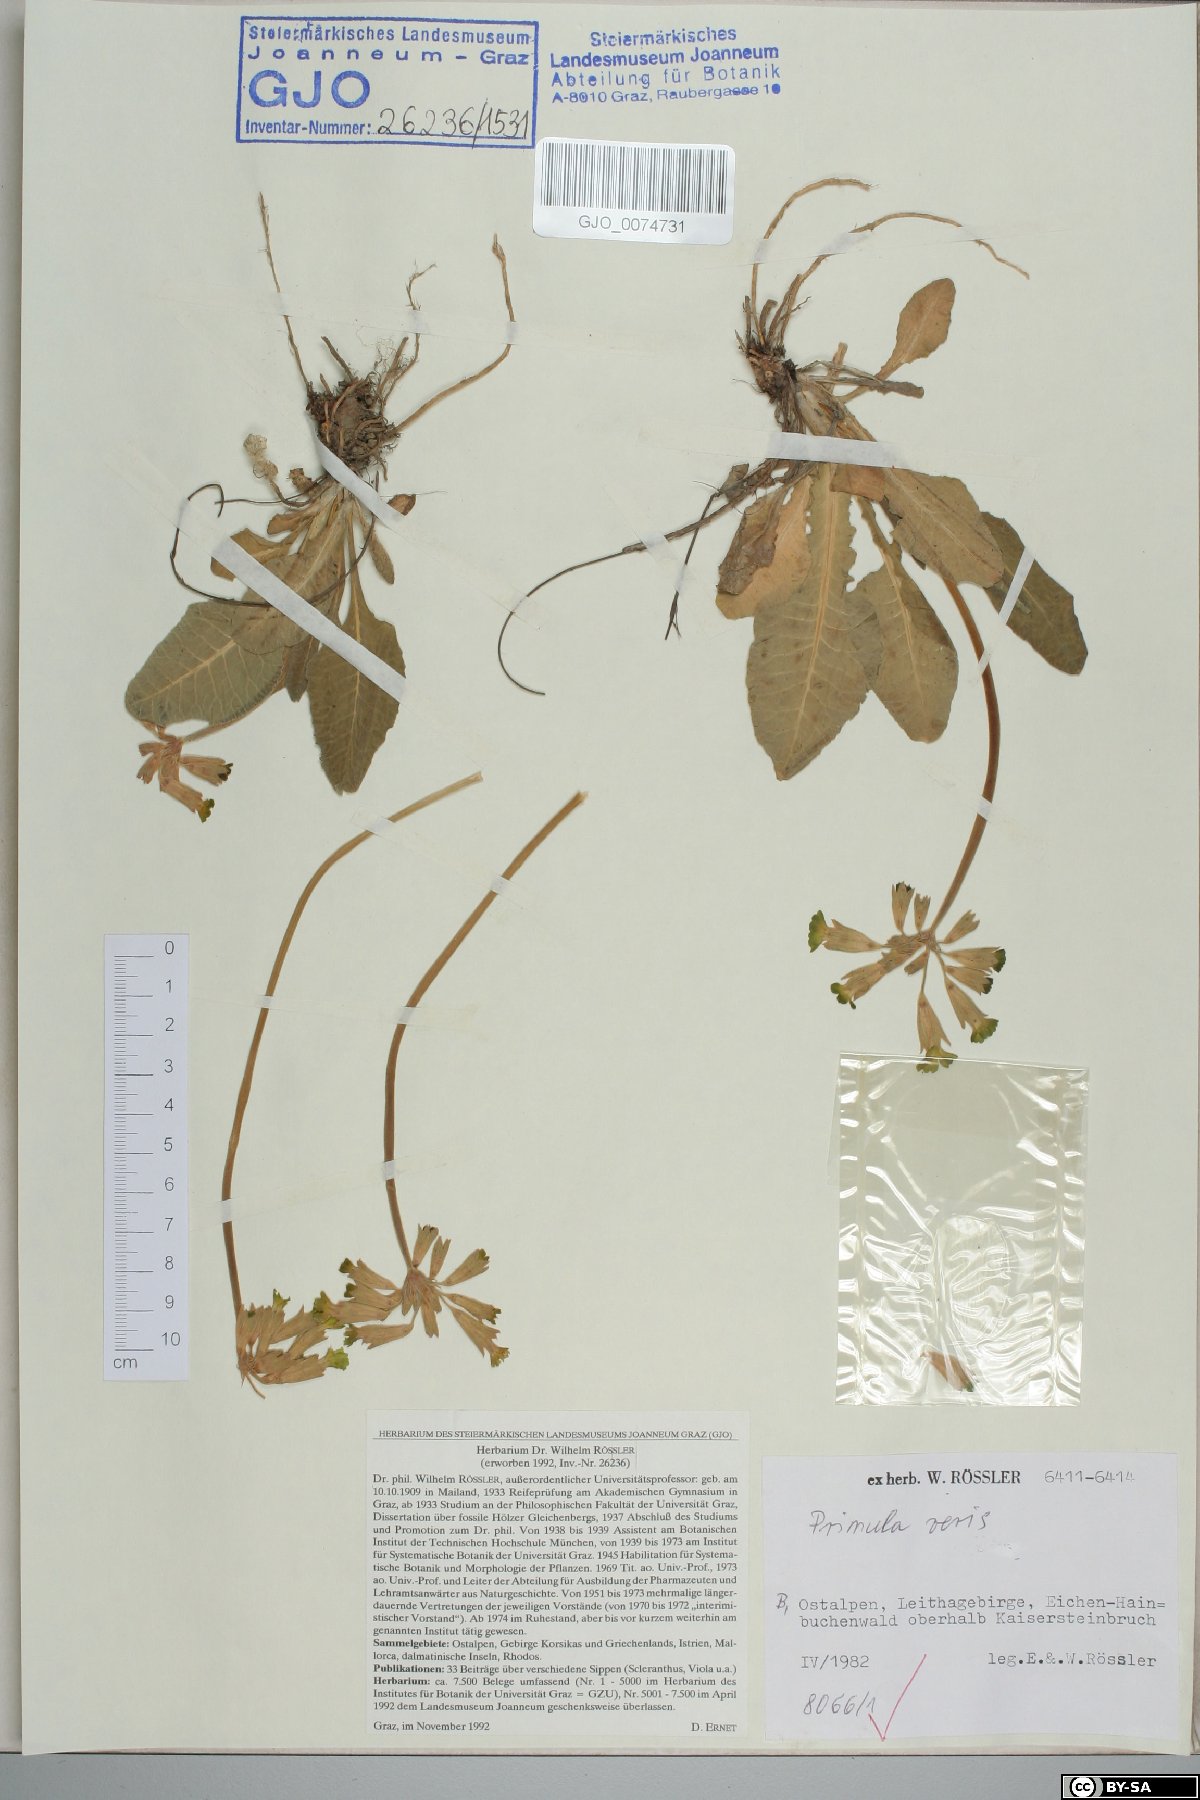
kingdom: Plantae
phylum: Tracheophyta
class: Magnoliopsida
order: Ericales
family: Primulaceae
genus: Primula
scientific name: Primula veris
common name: Cowslip
